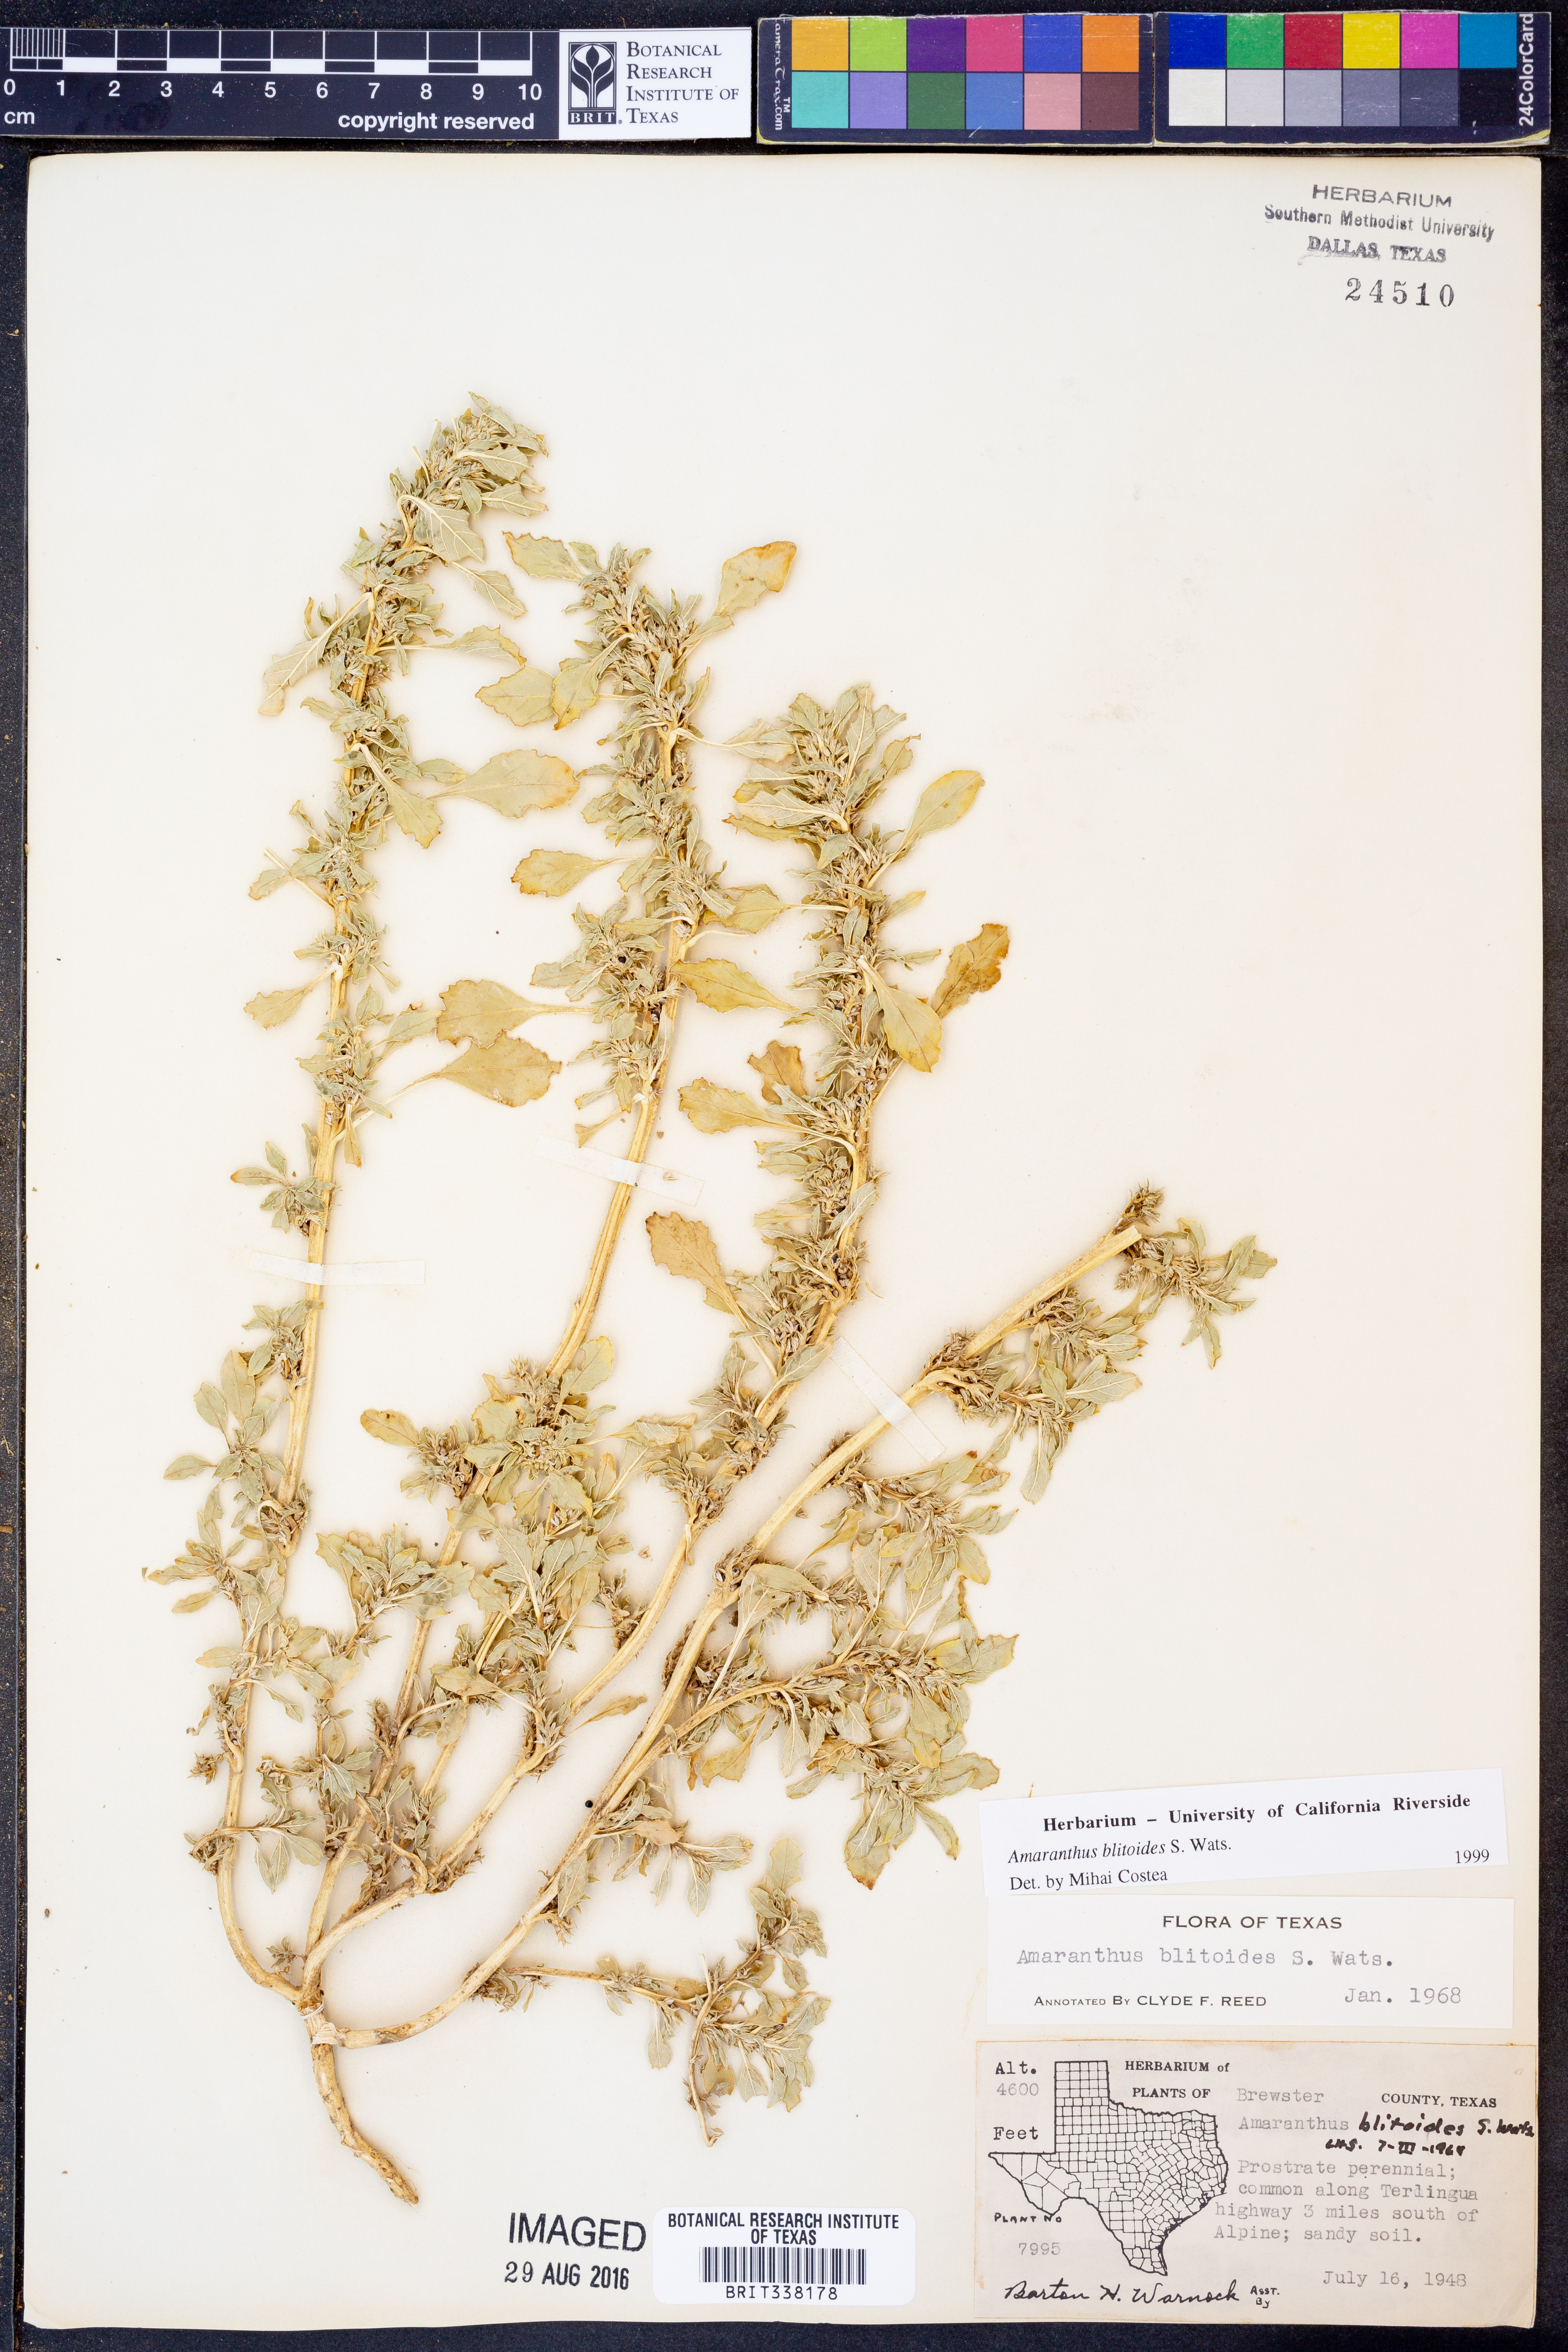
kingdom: Plantae
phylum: Tracheophyta
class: Magnoliopsida
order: Caryophyllales
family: Amaranthaceae
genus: Amaranthus
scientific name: Amaranthus blitoides
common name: Prostrate pigweed
